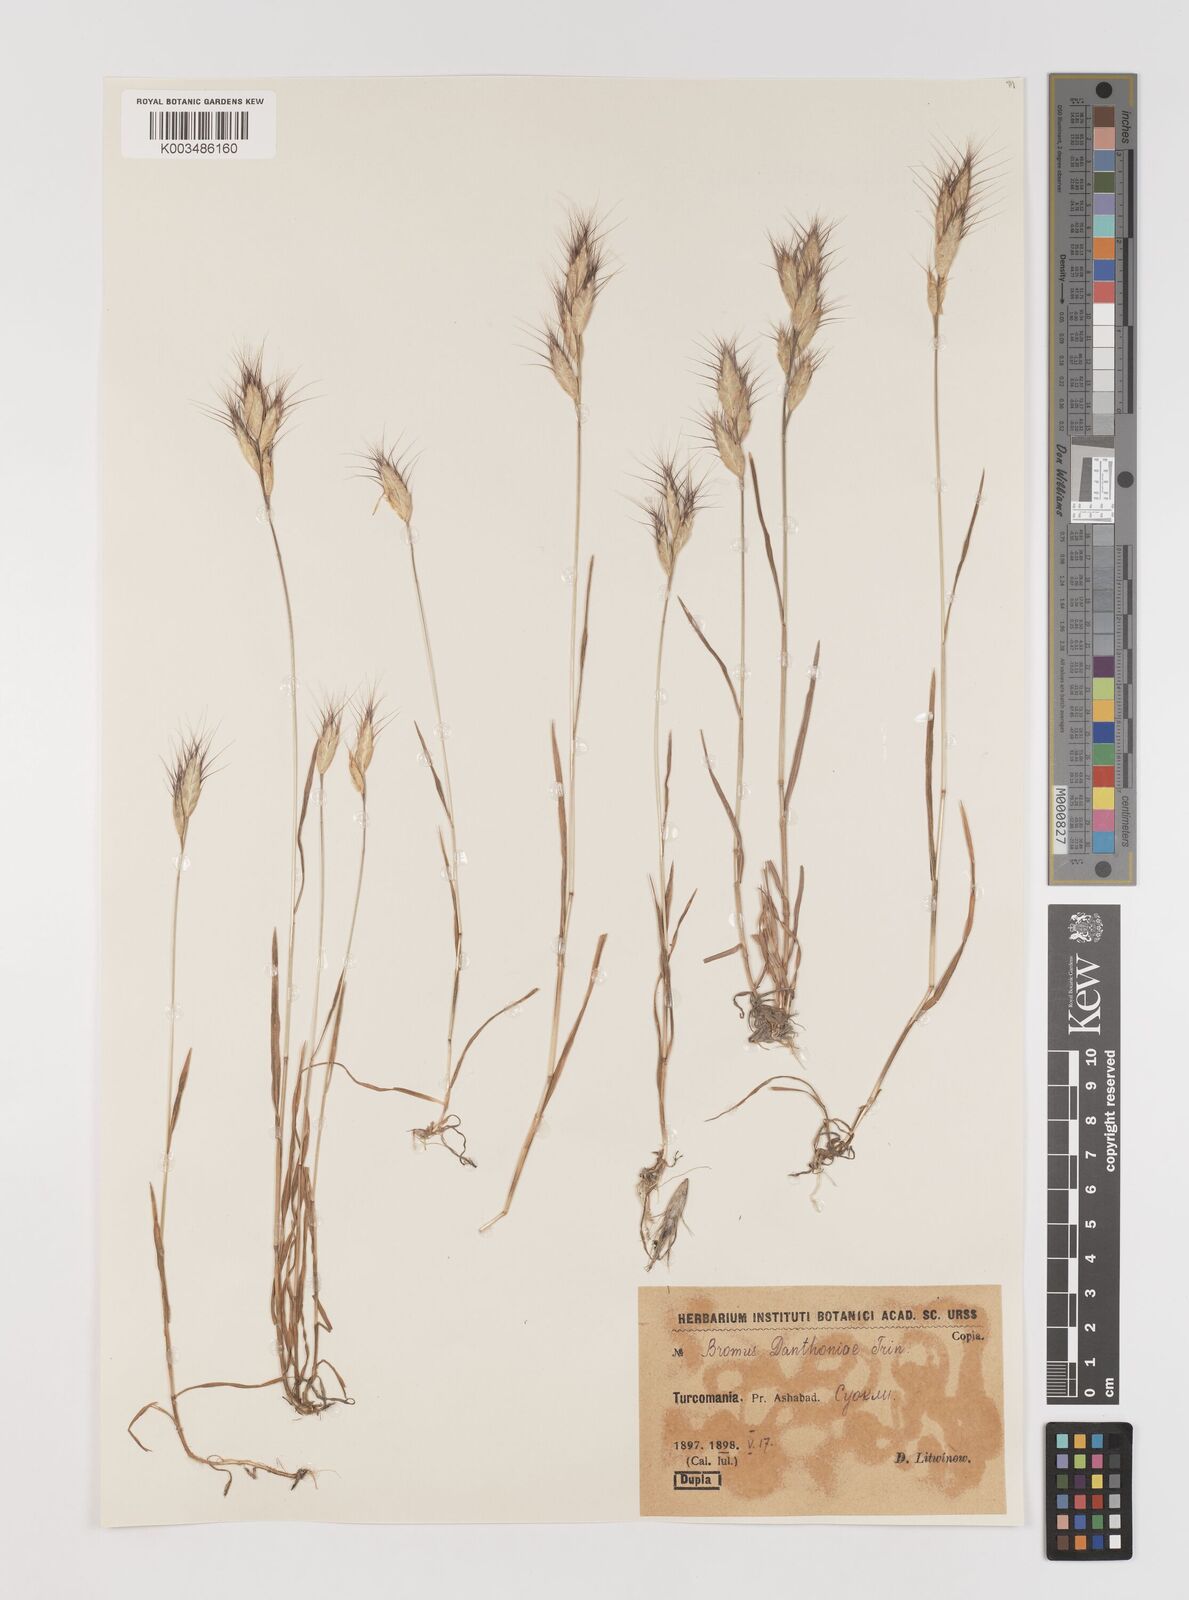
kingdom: Plantae
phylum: Tracheophyta
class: Liliopsida
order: Poales
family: Poaceae
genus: Bromus
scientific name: Bromus danthoniae
